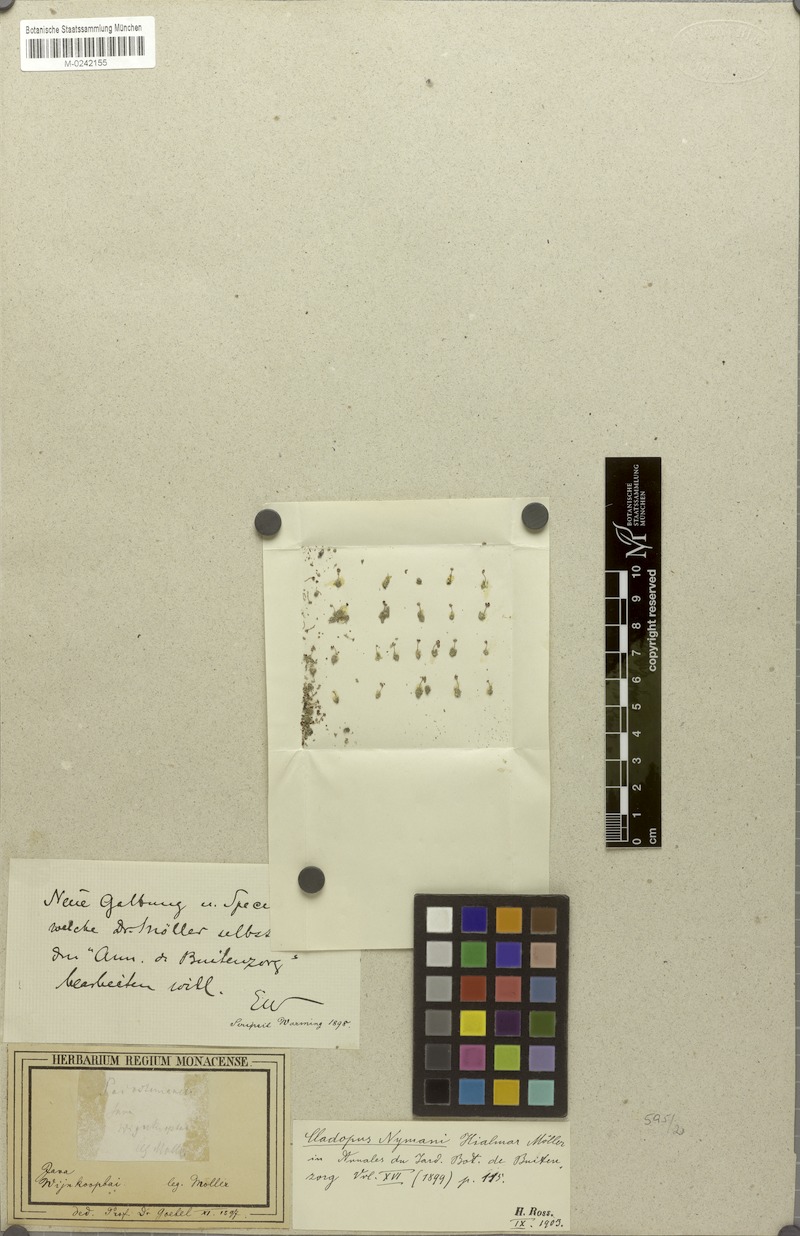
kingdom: Plantae
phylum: Tracheophyta
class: Magnoliopsida
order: Malpighiales
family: Podostemaceae
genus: Cladopus
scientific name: Cladopus nymanii
